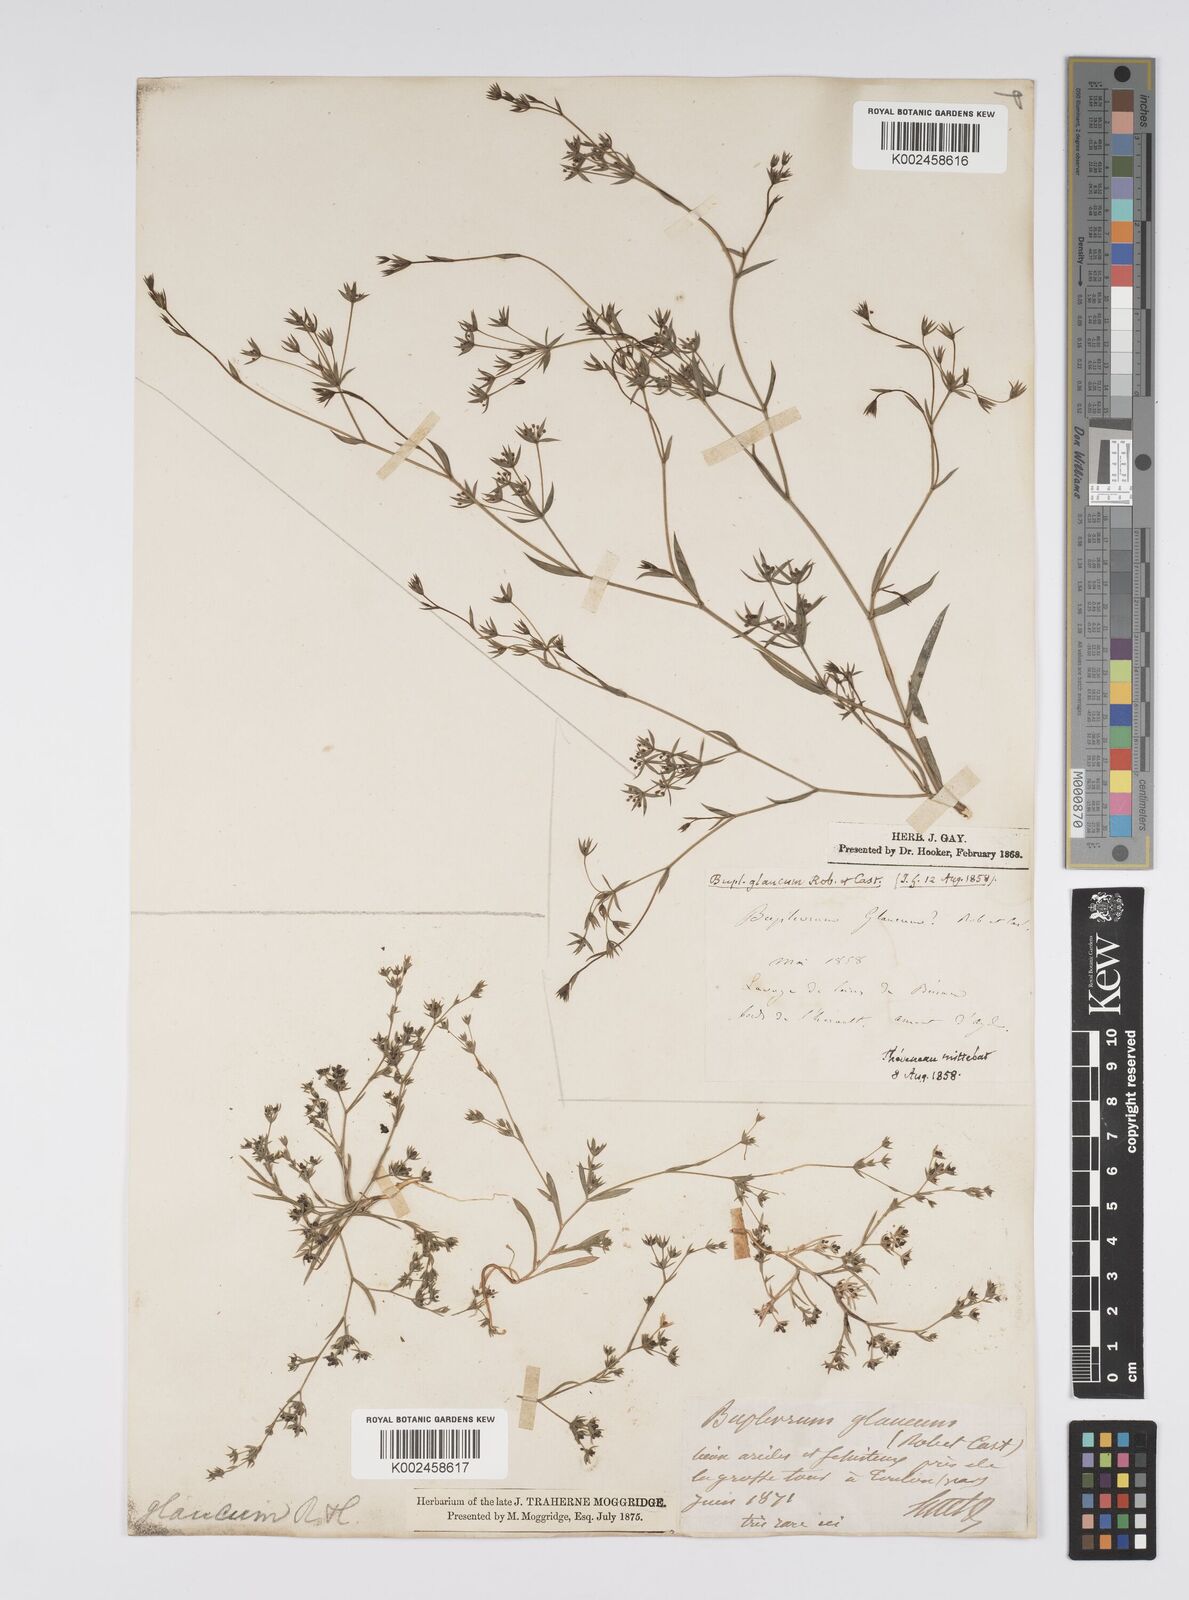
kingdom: Plantae
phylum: Tracheophyta
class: Magnoliopsida
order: Apiales
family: Apiaceae
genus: Bupleurum
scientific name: Bupleurum semicompositum
